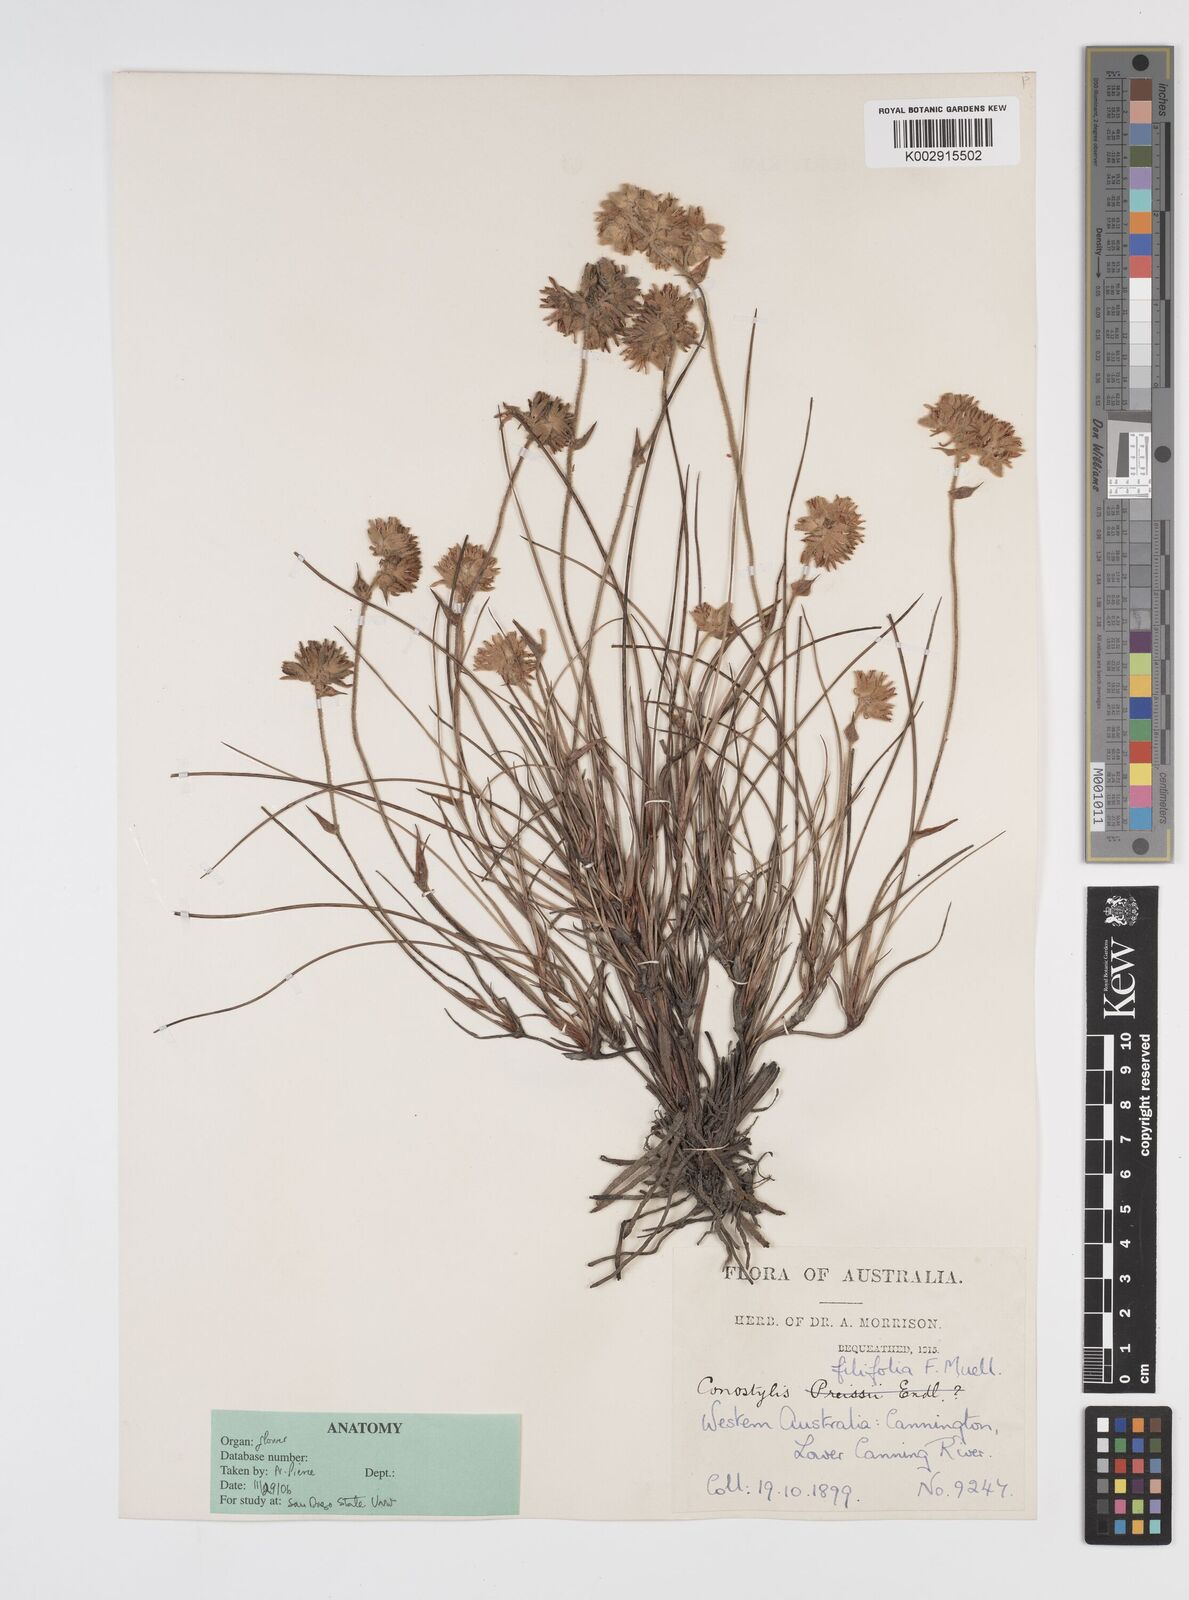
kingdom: Plantae
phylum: Tracheophyta
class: Liliopsida
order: Commelinales
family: Haemodoraceae
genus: Conostylis
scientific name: Conostylis festucacea
